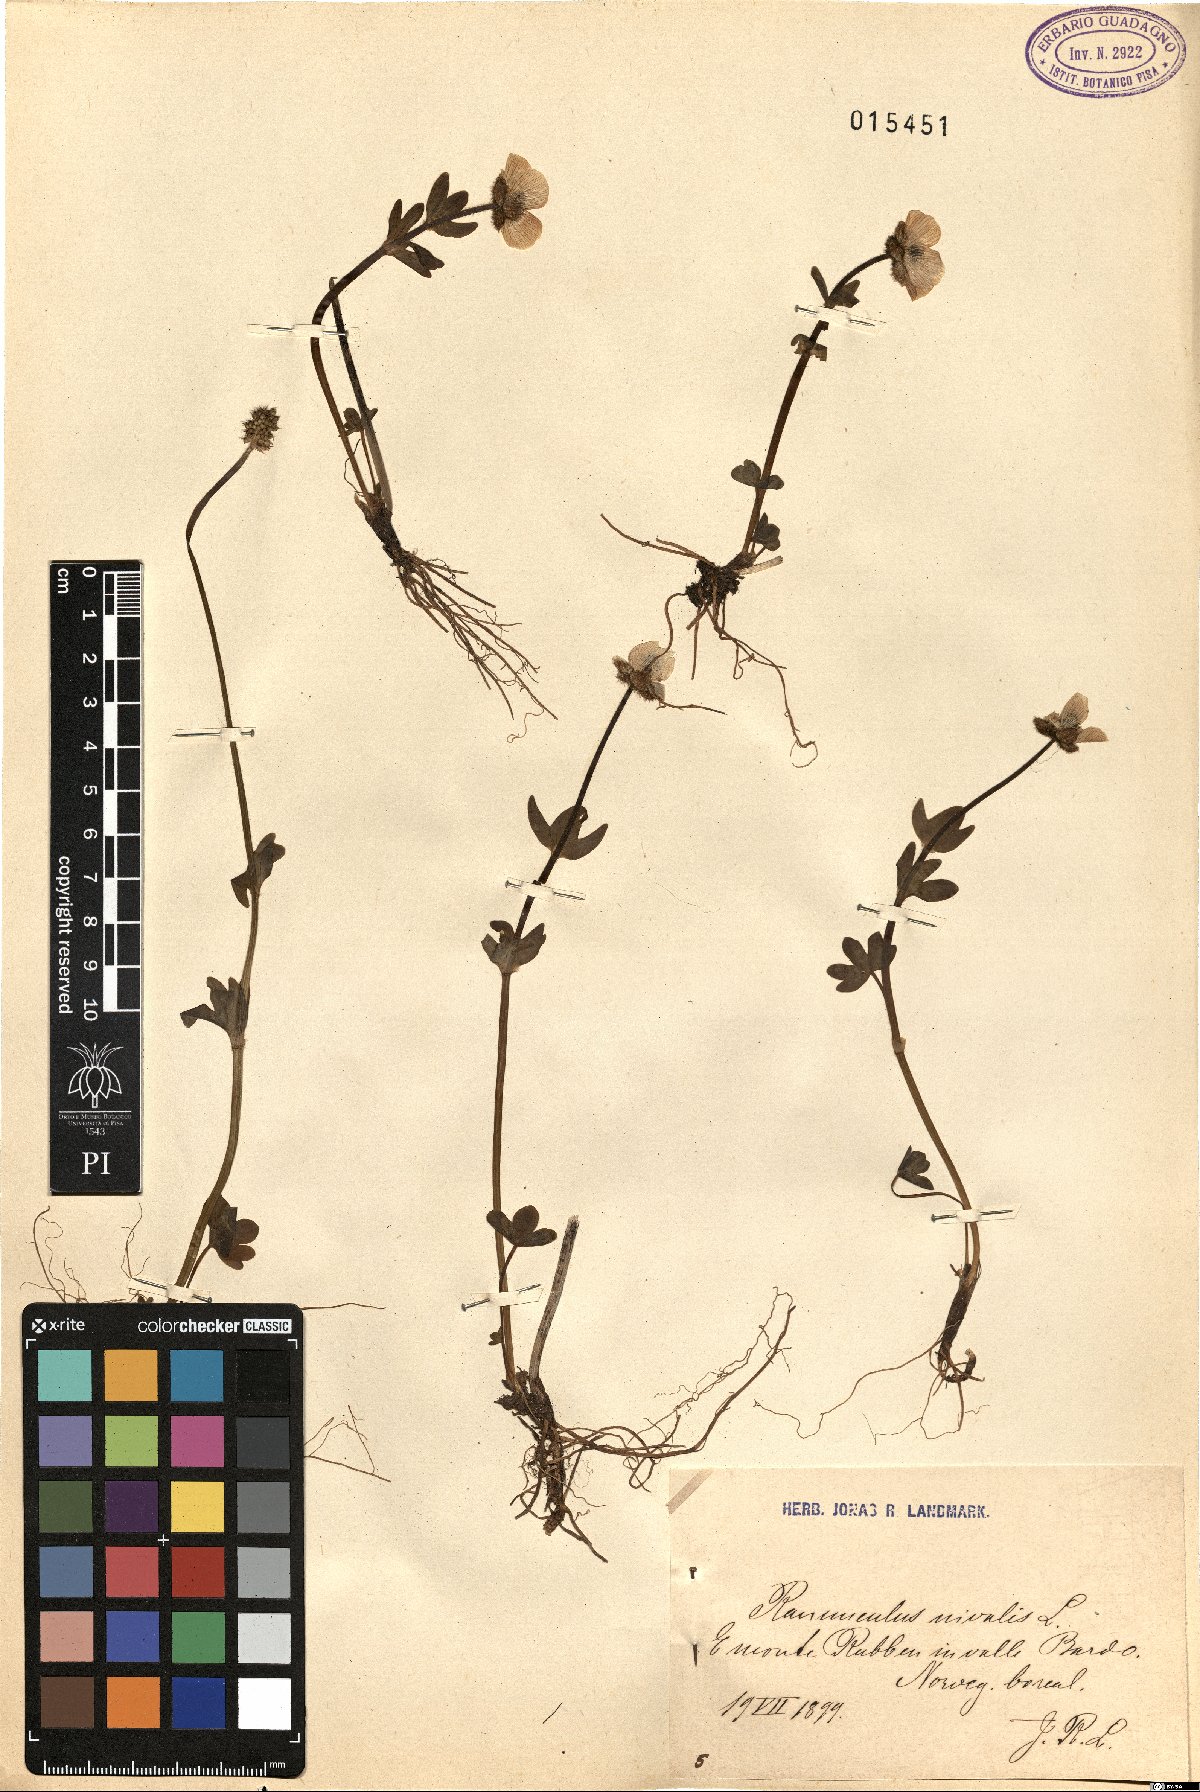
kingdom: Plantae
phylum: Tracheophyta
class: Magnoliopsida
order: Ranunculales
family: Ranunculaceae
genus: Ranunculus
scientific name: Ranunculus nivalis
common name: Snow buttercup
